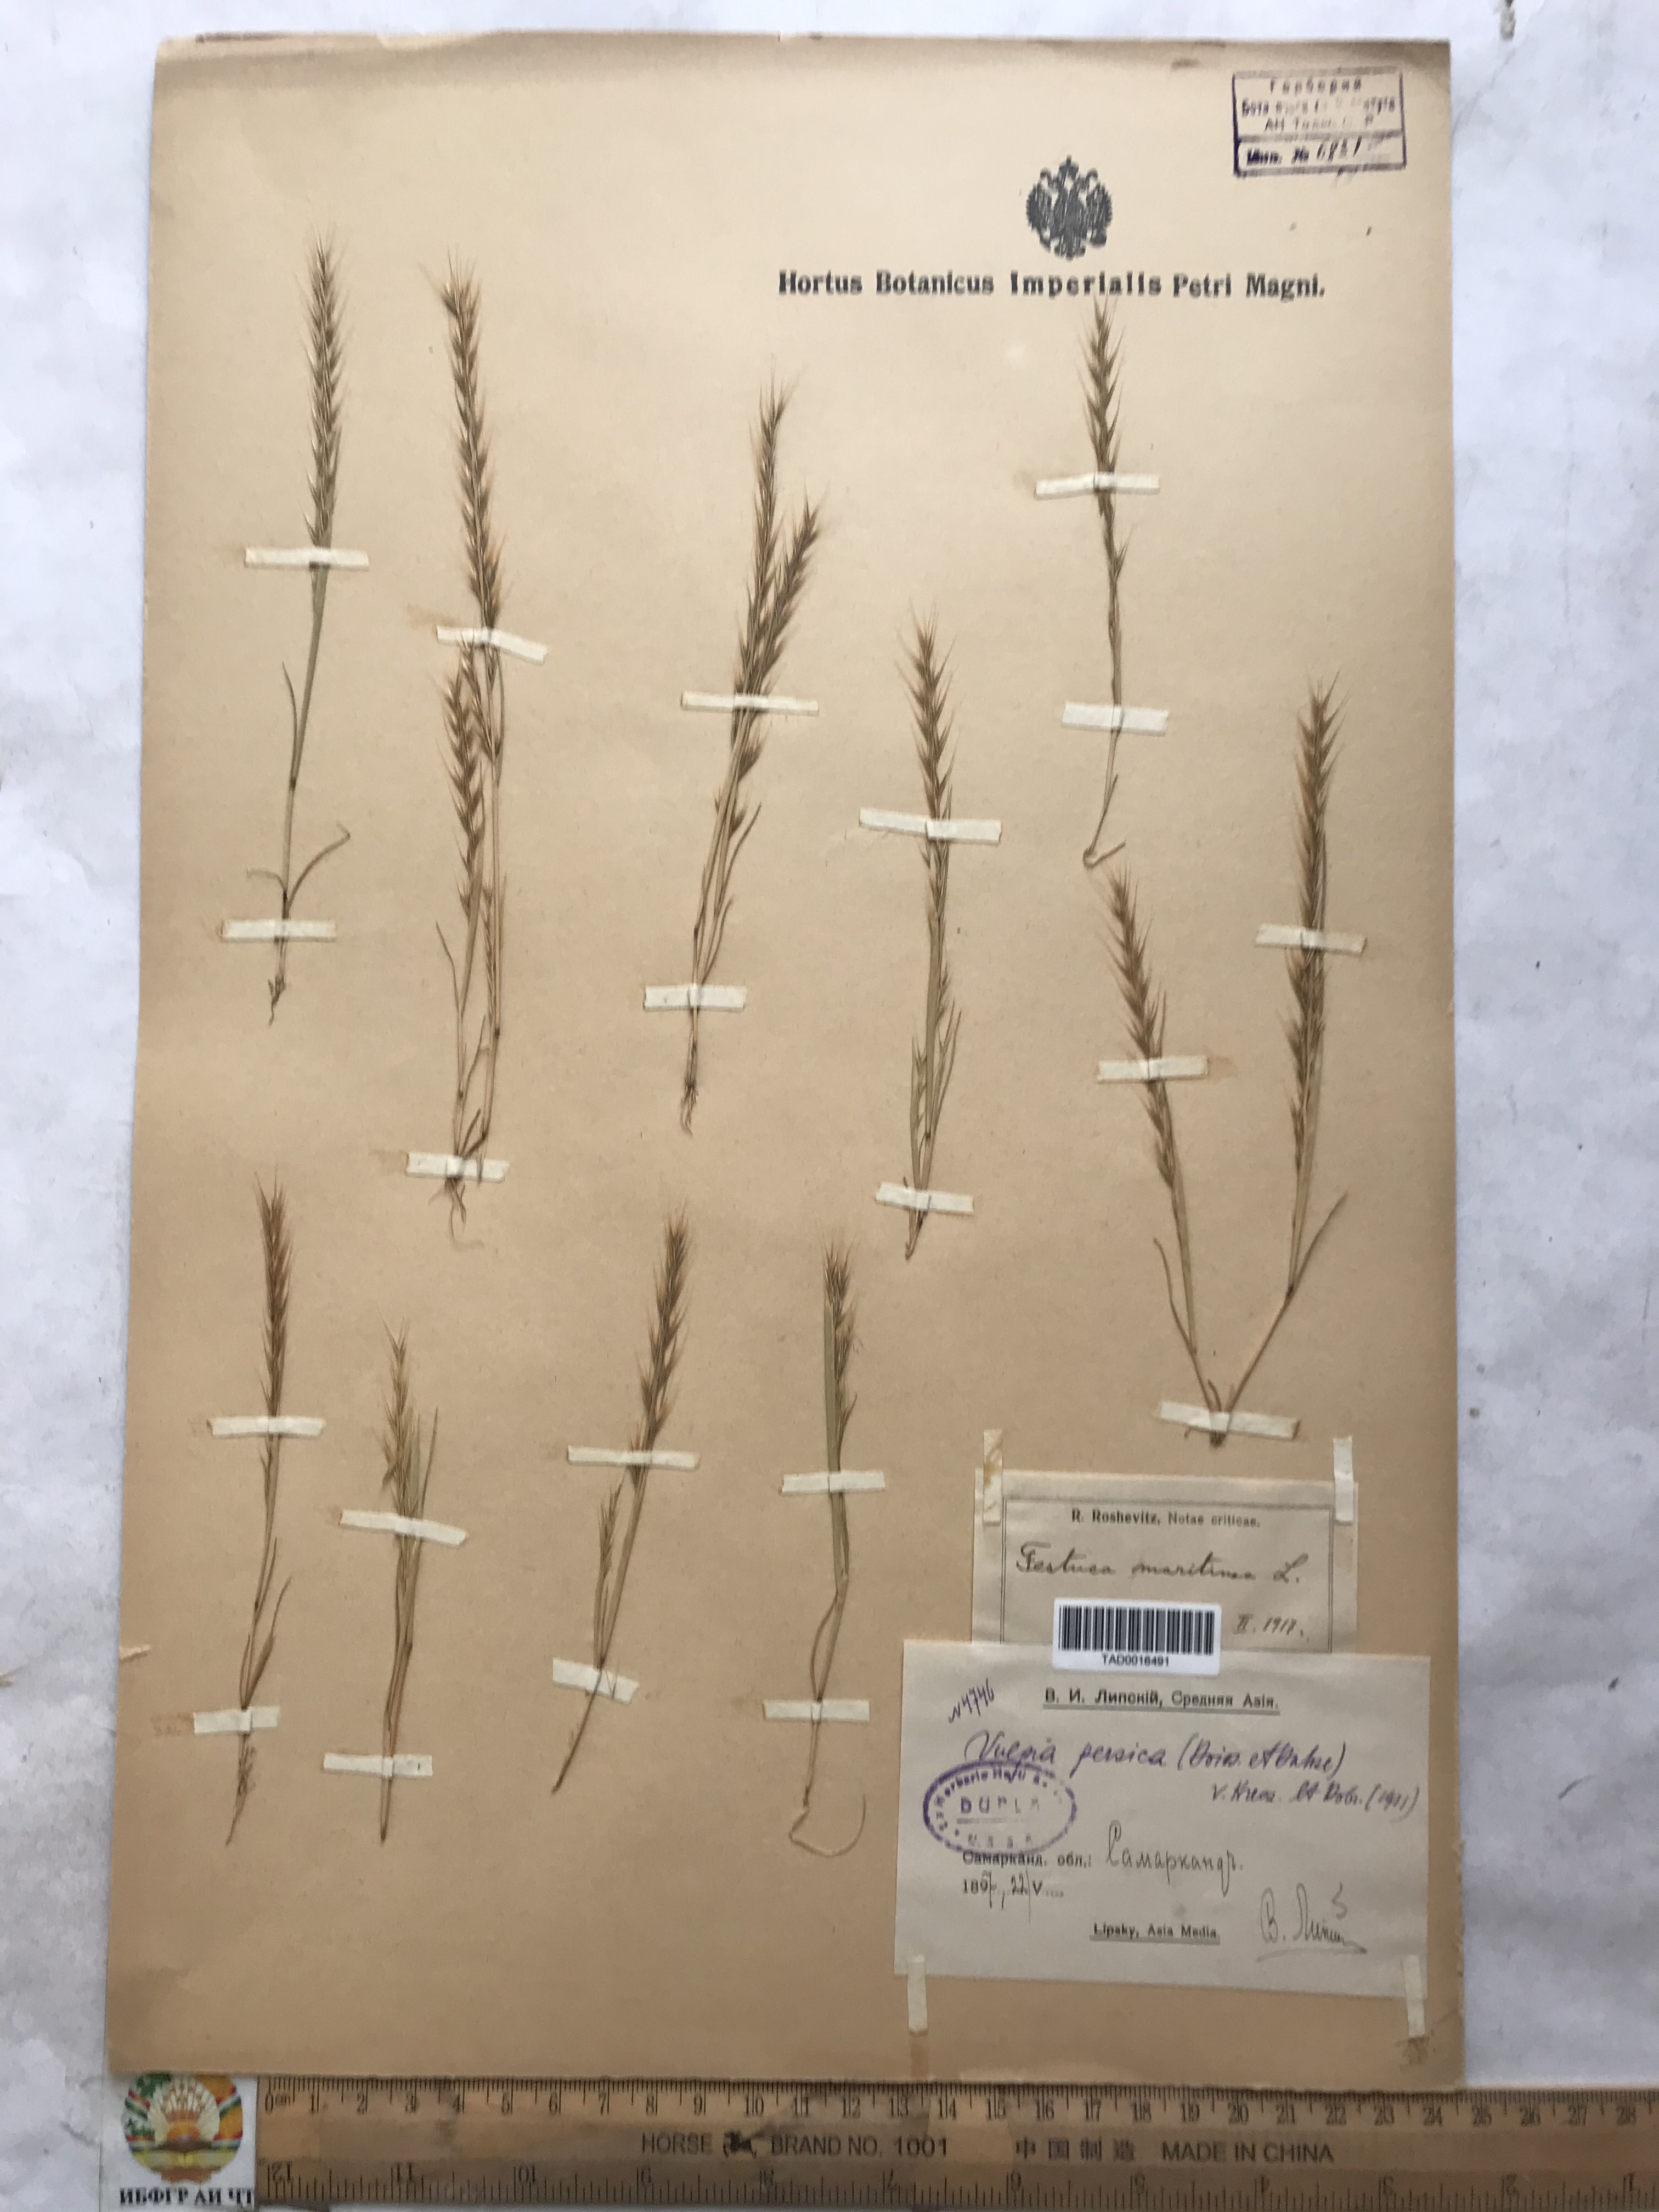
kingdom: Plantae
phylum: Tracheophyta
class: Liliopsida
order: Poales
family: Poaceae
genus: Festuca
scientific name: Festuca Vulpia persica
